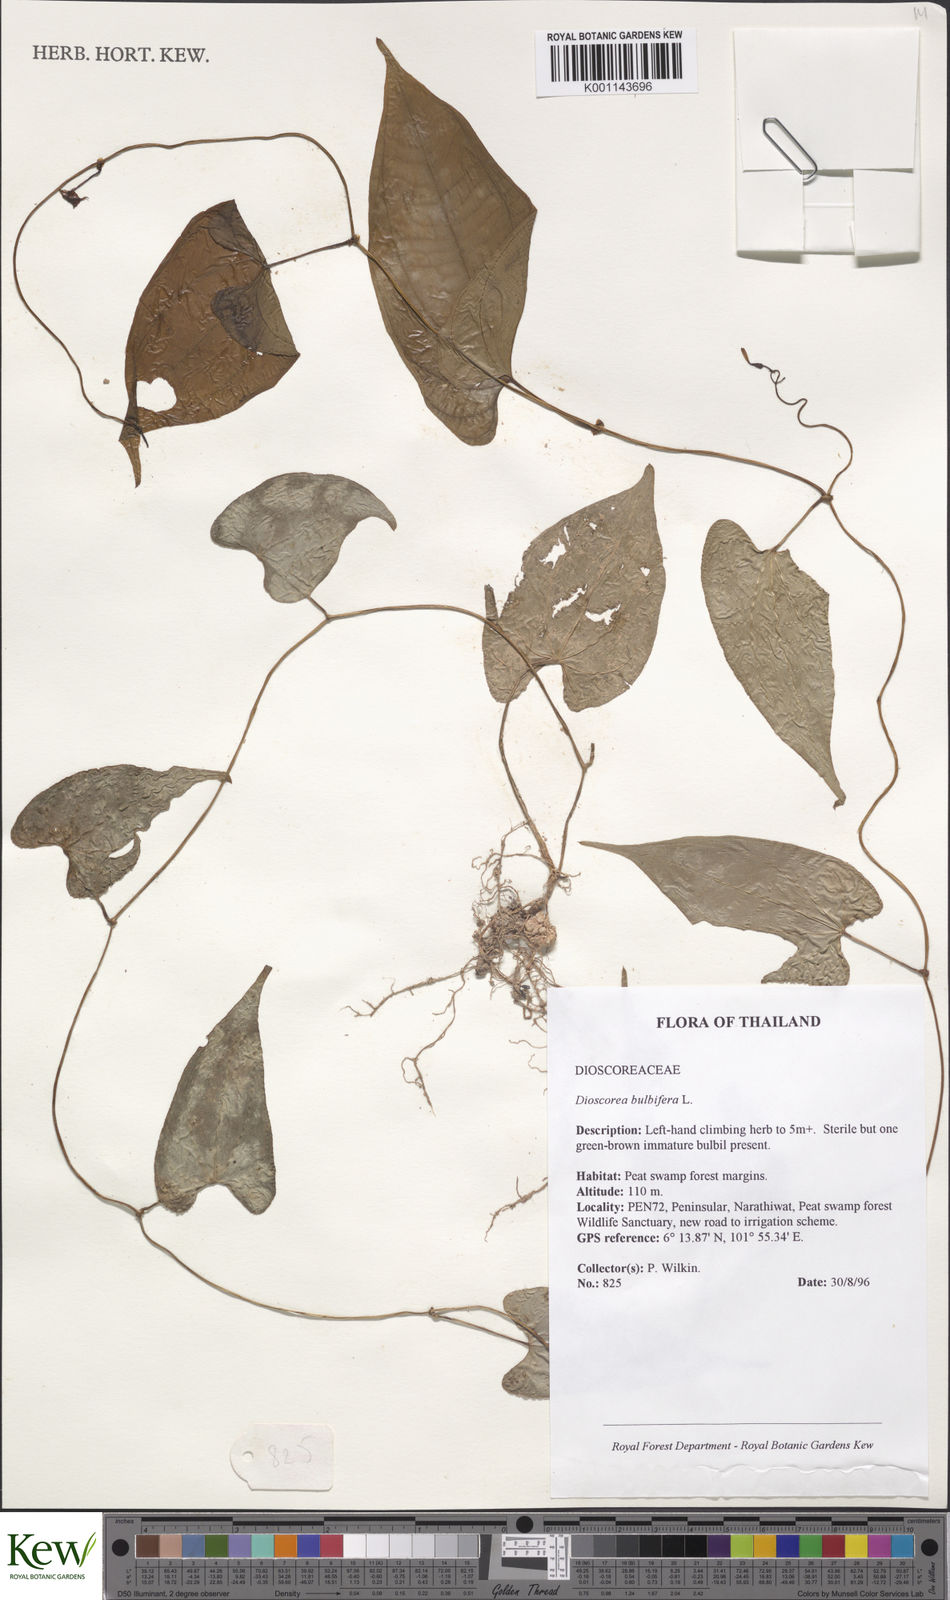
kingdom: Plantae
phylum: Tracheophyta
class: Liliopsida
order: Dioscoreales
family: Dioscoreaceae
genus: Dioscorea
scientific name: Dioscorea bulbifera
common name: Air yam
